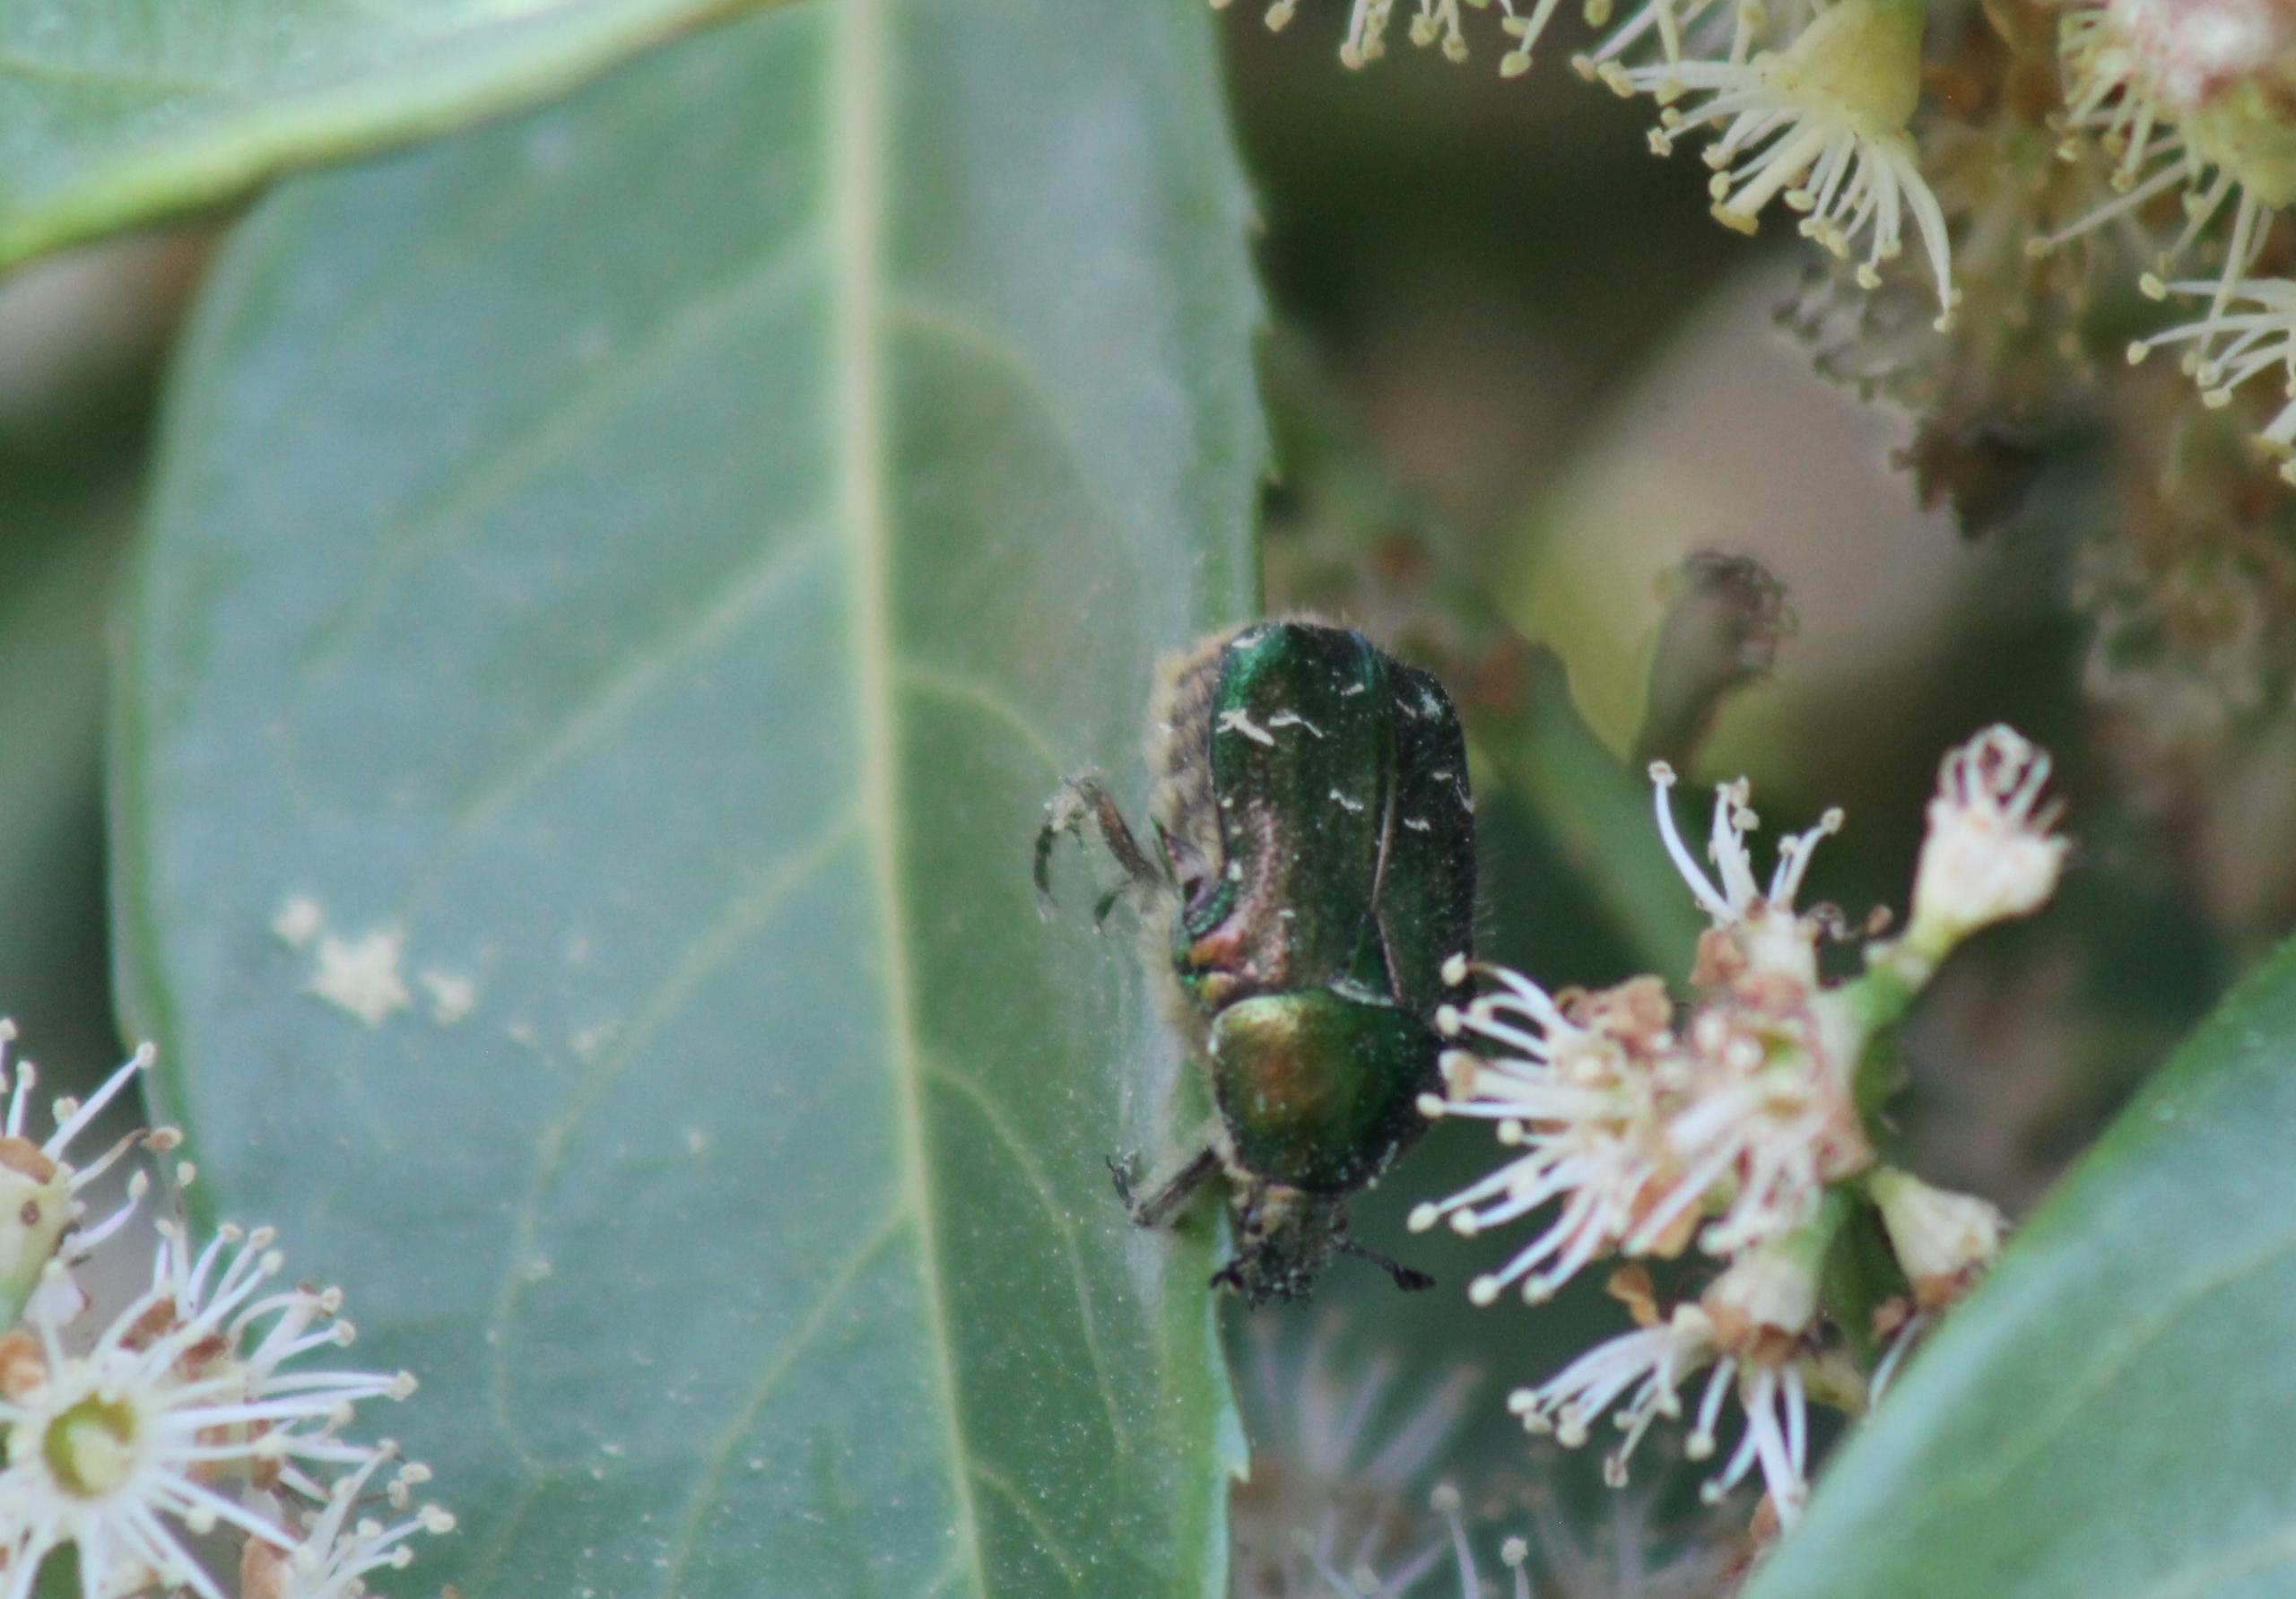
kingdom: Animalia
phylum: Arthropoda
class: Insecta
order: Coleoptera
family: Scarabaeidae
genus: Cetonia
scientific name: Cetonia aurata
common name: Grøn guldbasse
